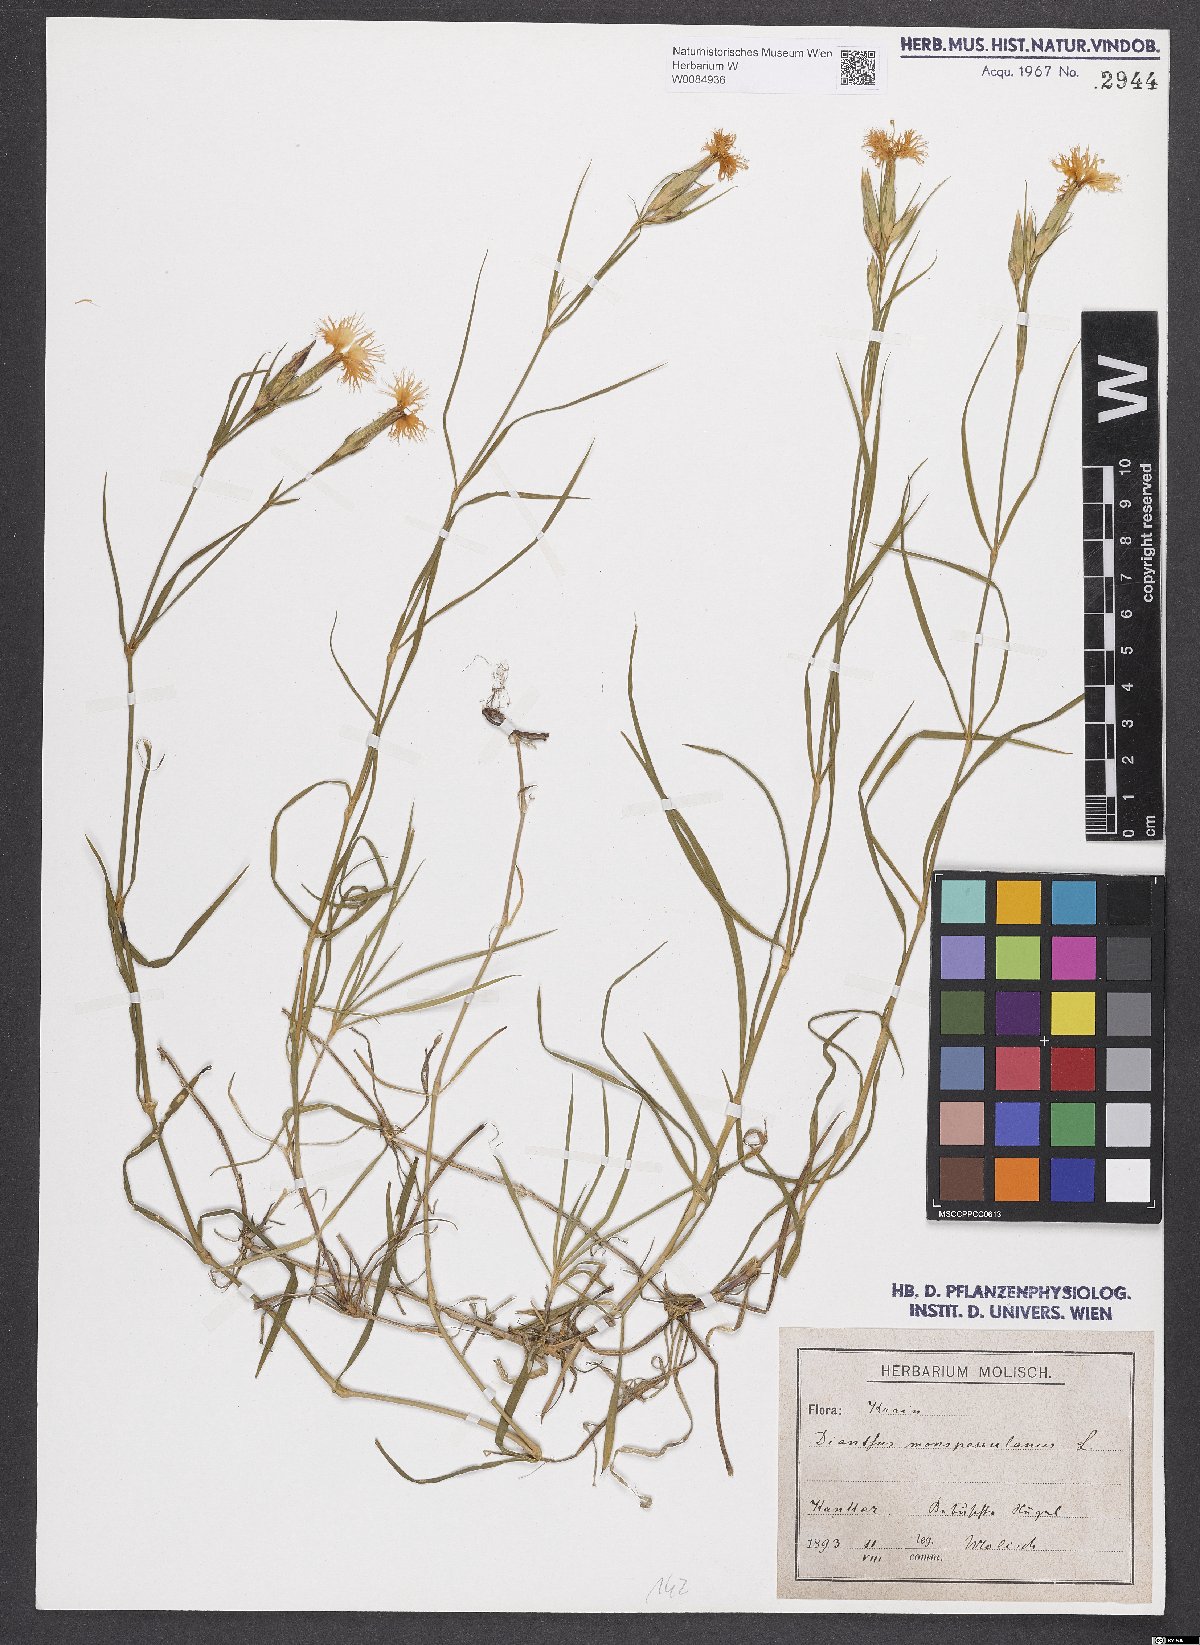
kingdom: Plantae
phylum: Tracheophyta
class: Magnoliopsida
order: Caryophyllales
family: Caryophyllaceae
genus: Dianthus
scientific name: Dianthus hyssopifolius
